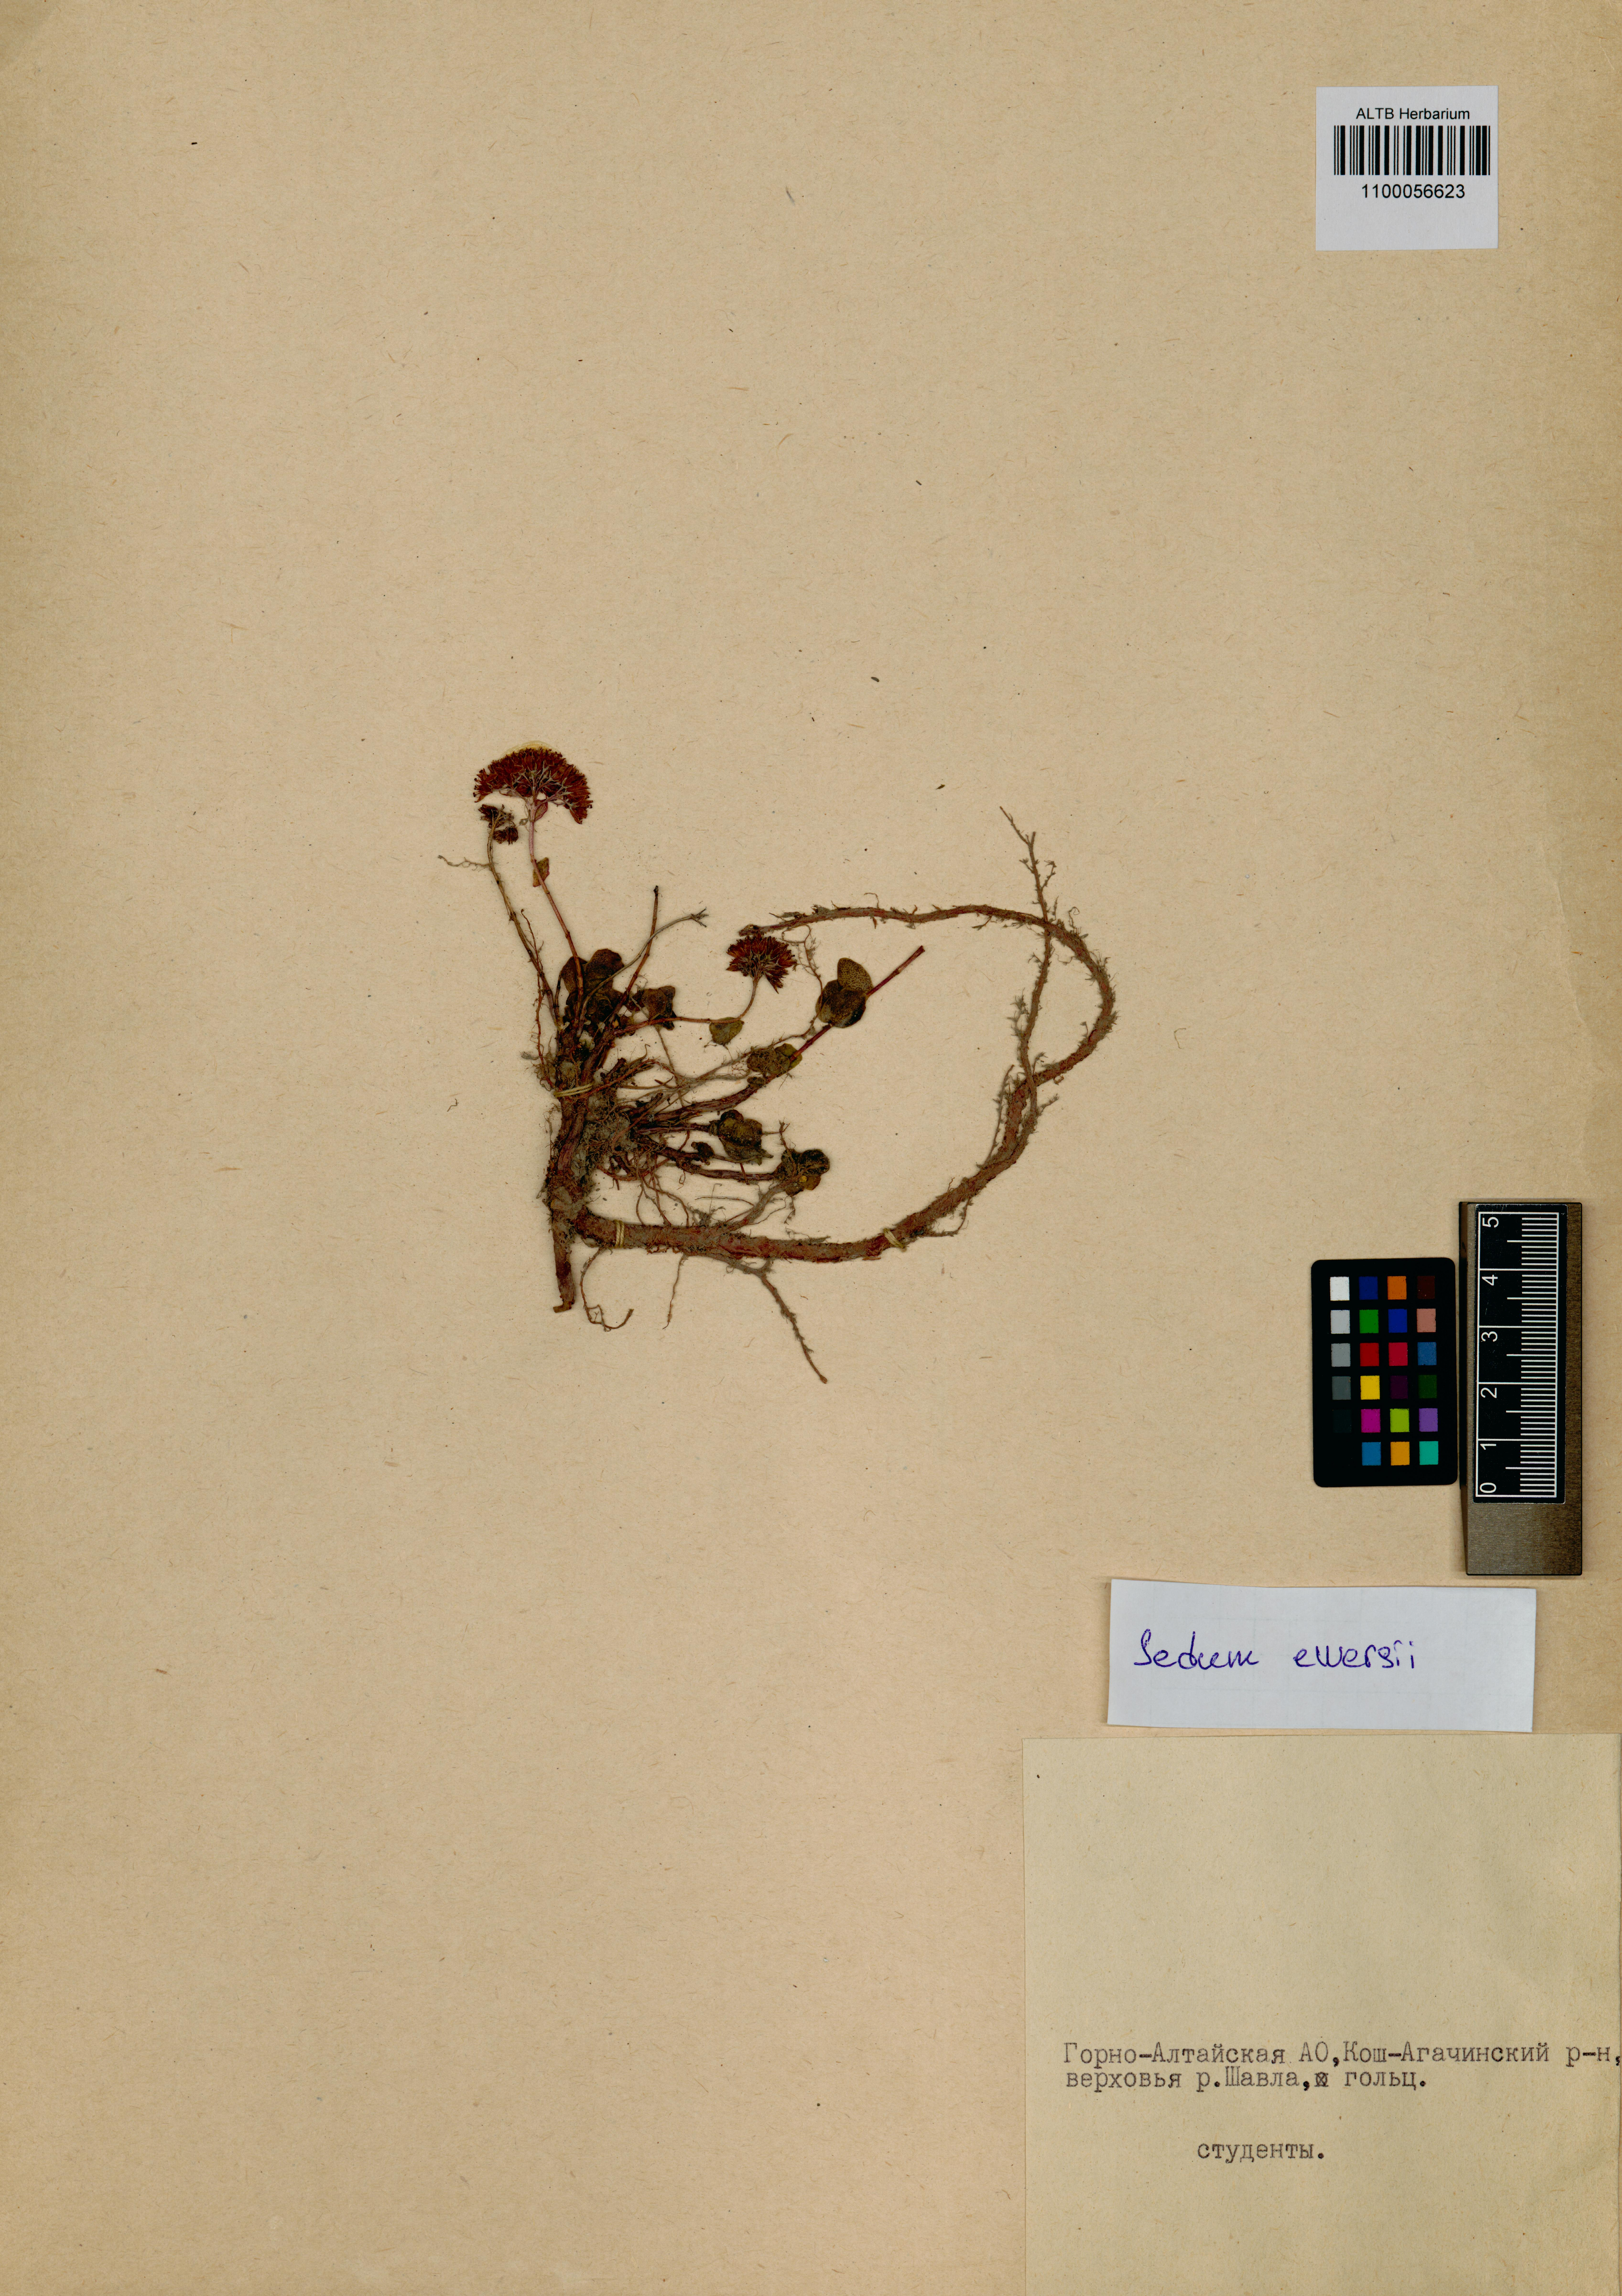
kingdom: Plantae
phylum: Tracheophyta
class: Magnoliopsida
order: Saxifragales
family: Crassulaceae
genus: Hylotelephium
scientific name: Hylotelephium ewersii
